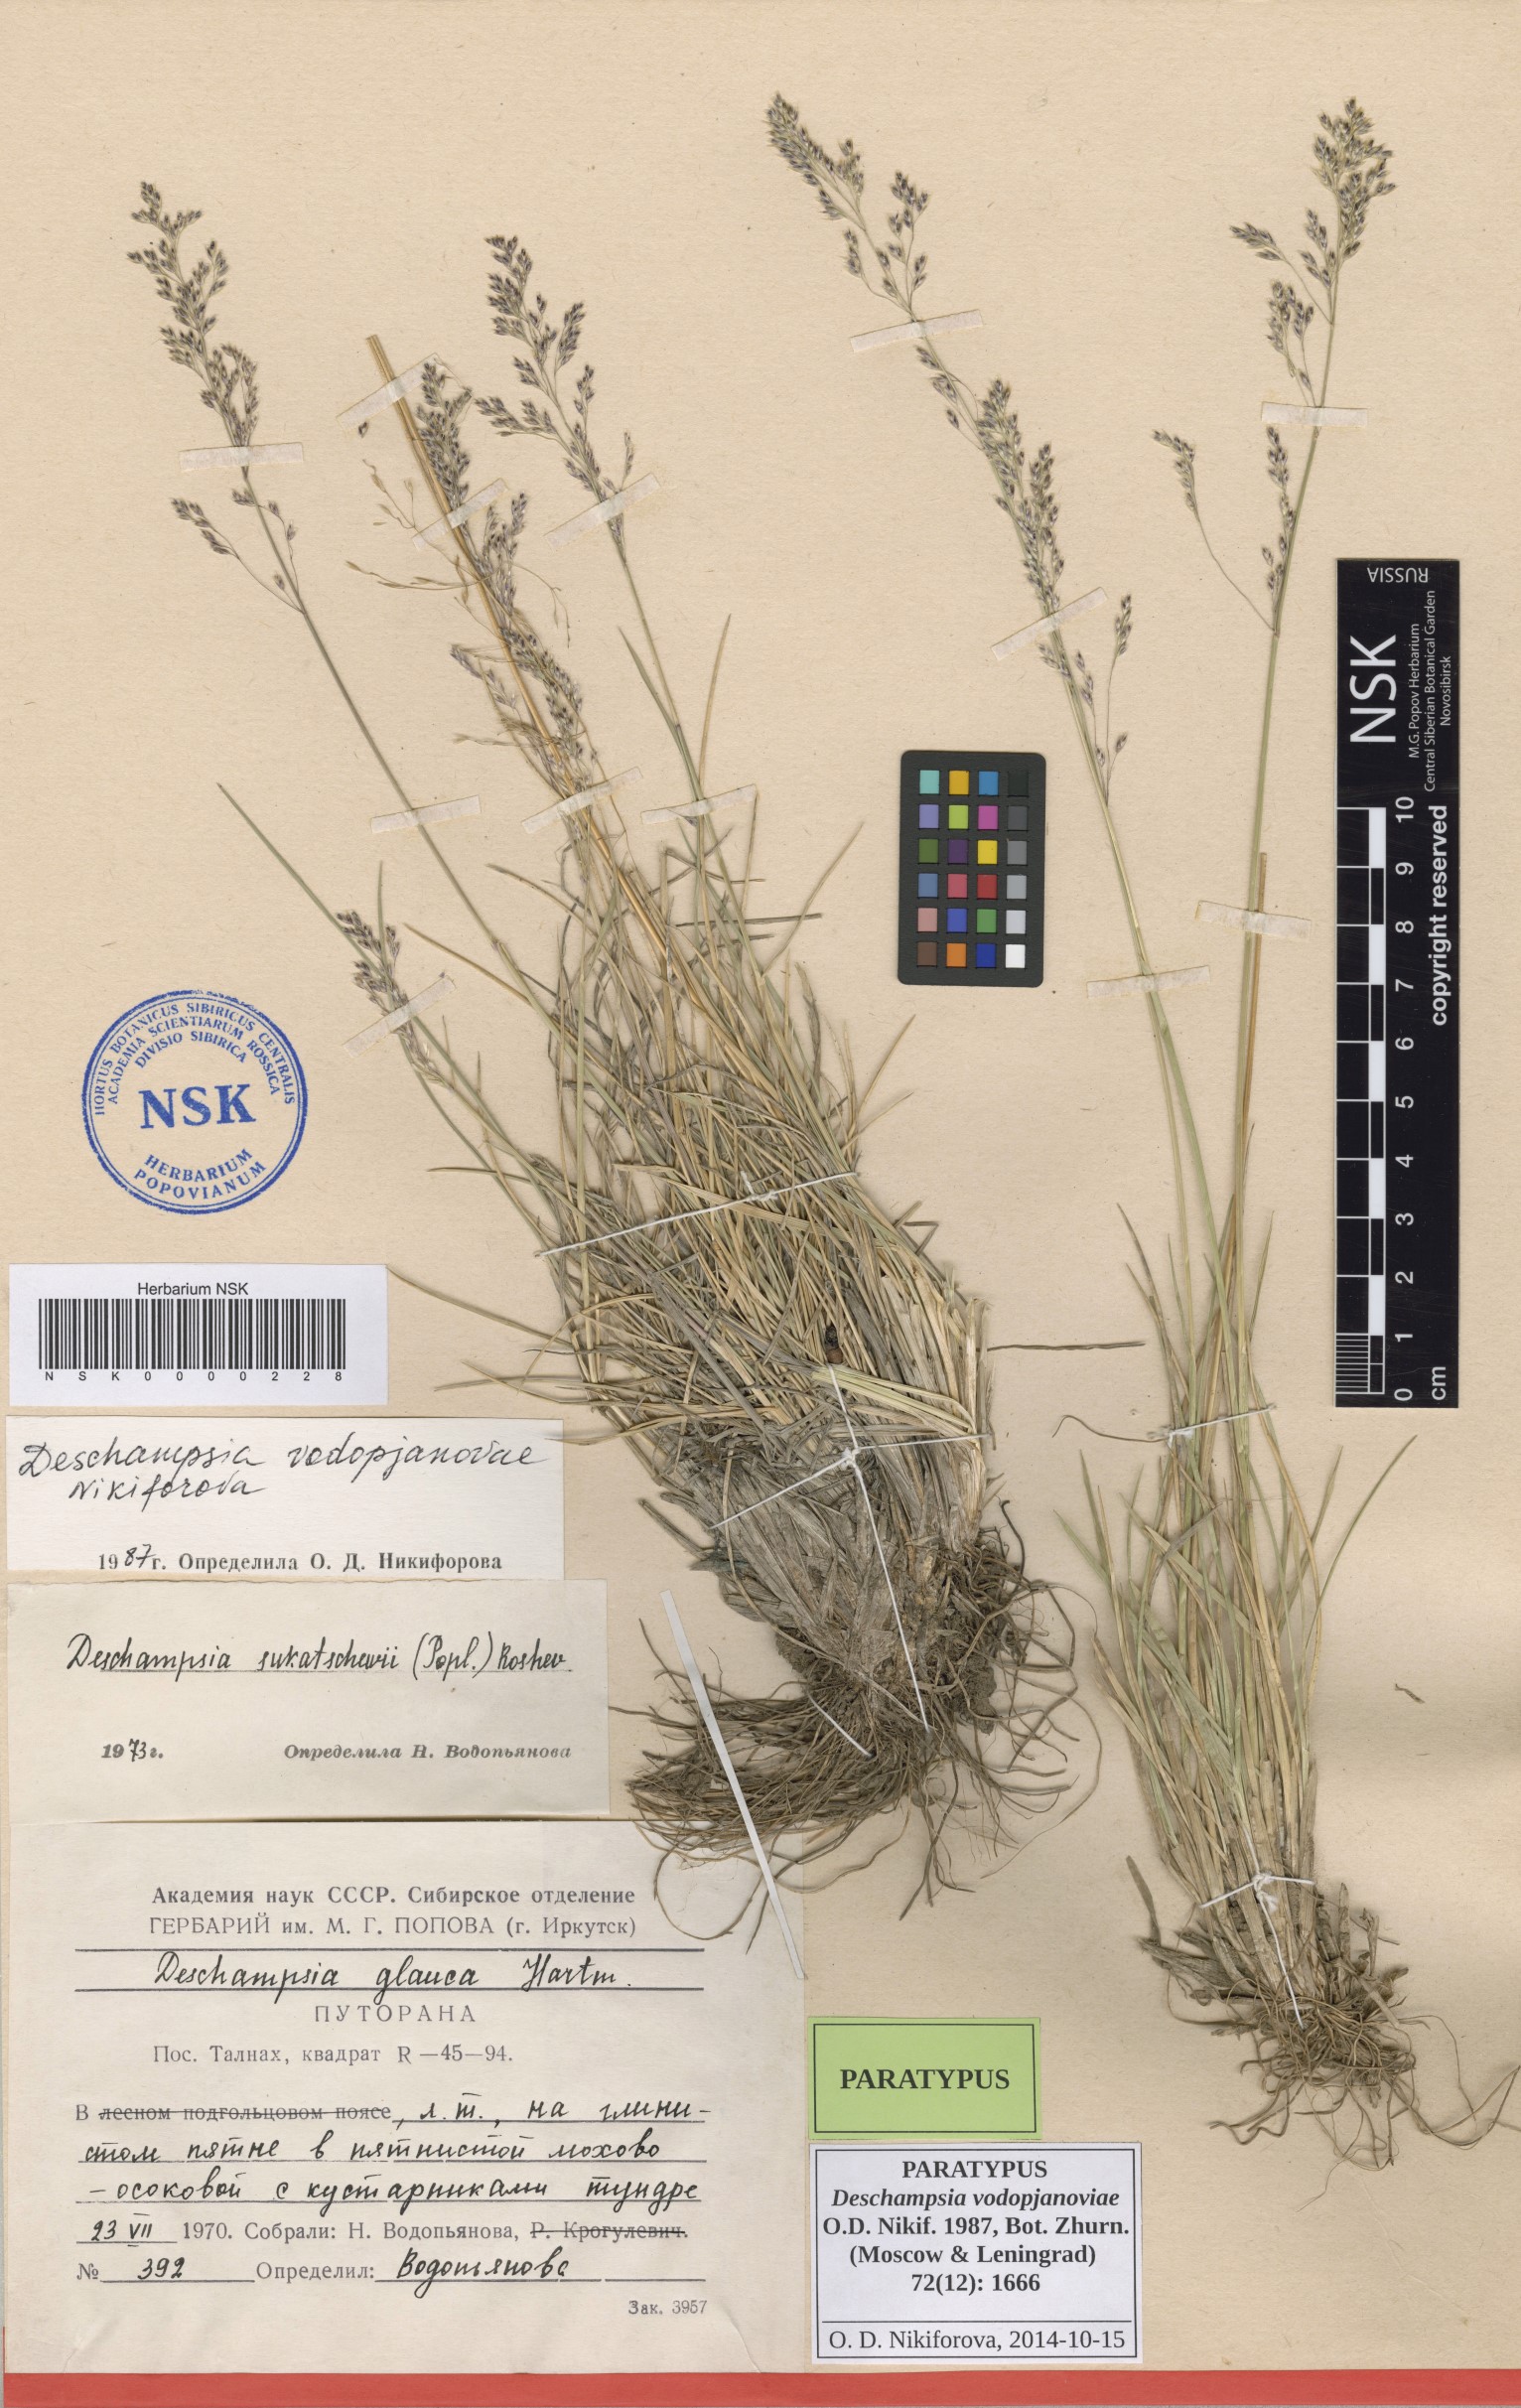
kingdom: Plantae
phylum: Tracheophyta
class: Liliopsida
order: Poales
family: Poaceae
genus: Deschampsia
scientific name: Deschampsia cespitosa
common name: Tufted hair-grass
